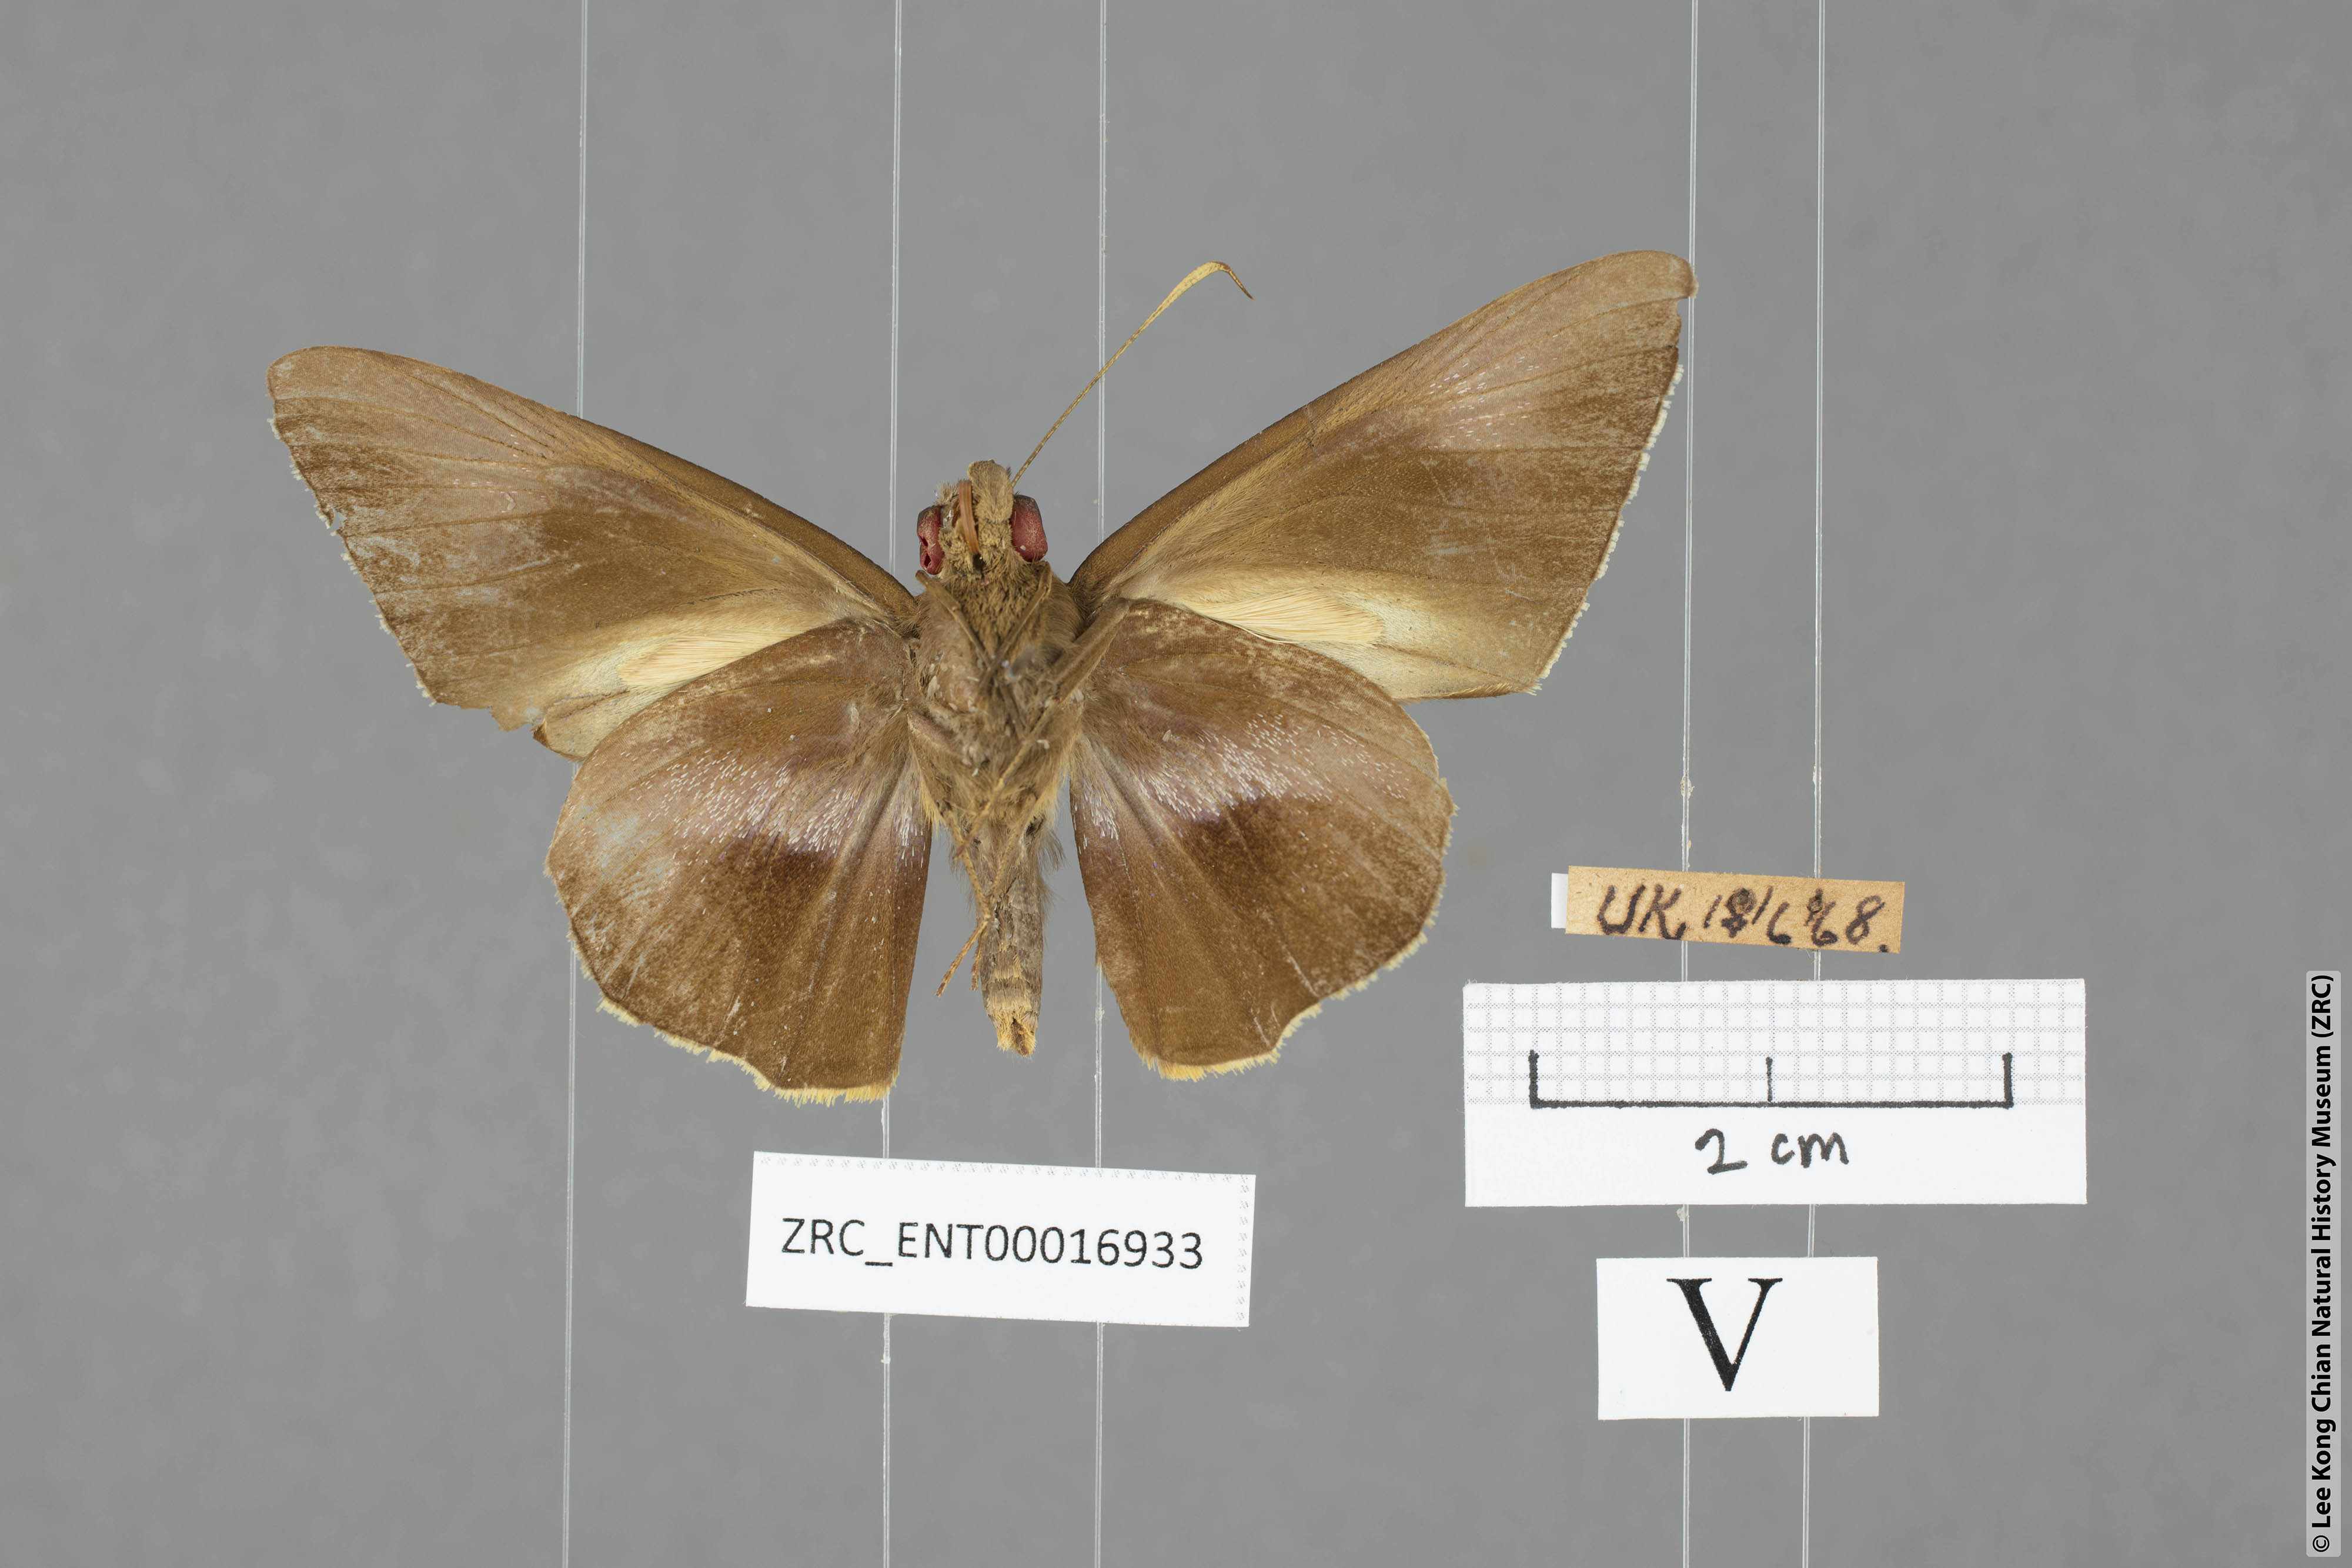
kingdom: Animalia
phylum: Arthropoda
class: Insecta
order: Lepidoptera
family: Hesperiidae
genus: Gangara
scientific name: Gangara lebadea
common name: Banded redeye
